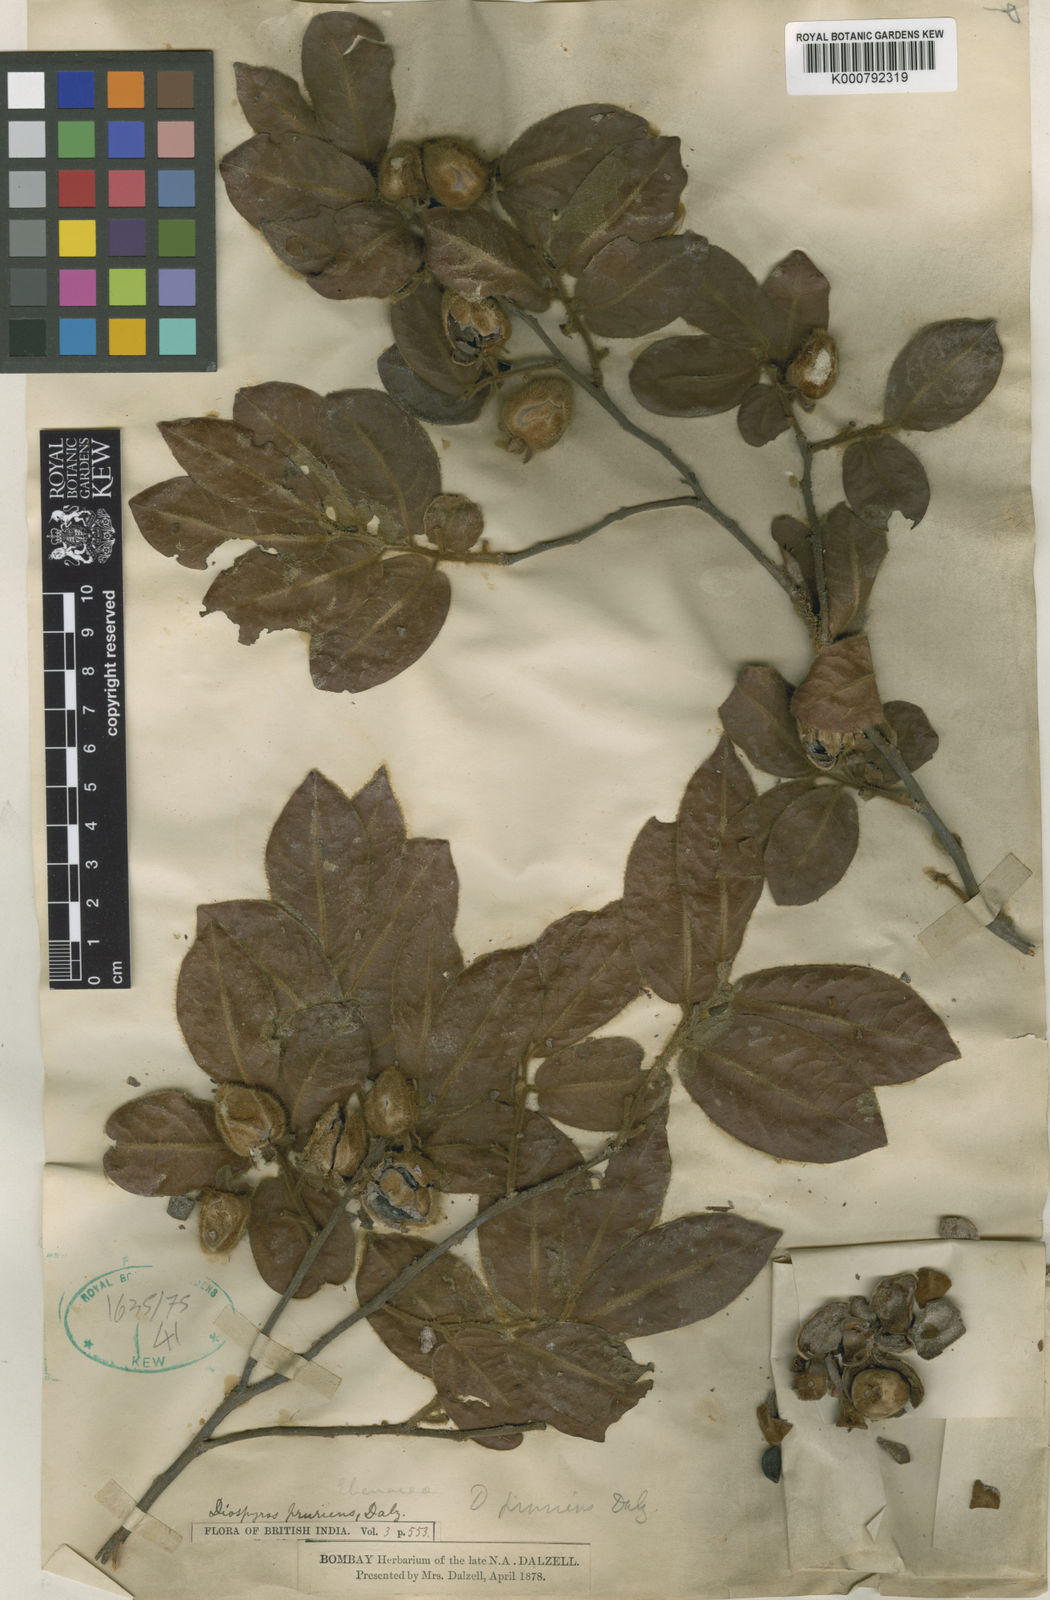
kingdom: Plantae
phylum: Tracheophyta
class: Magnoliopsida
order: Ericales
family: Ebenaceae
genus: Diospyros
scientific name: Diospyros pruriens
